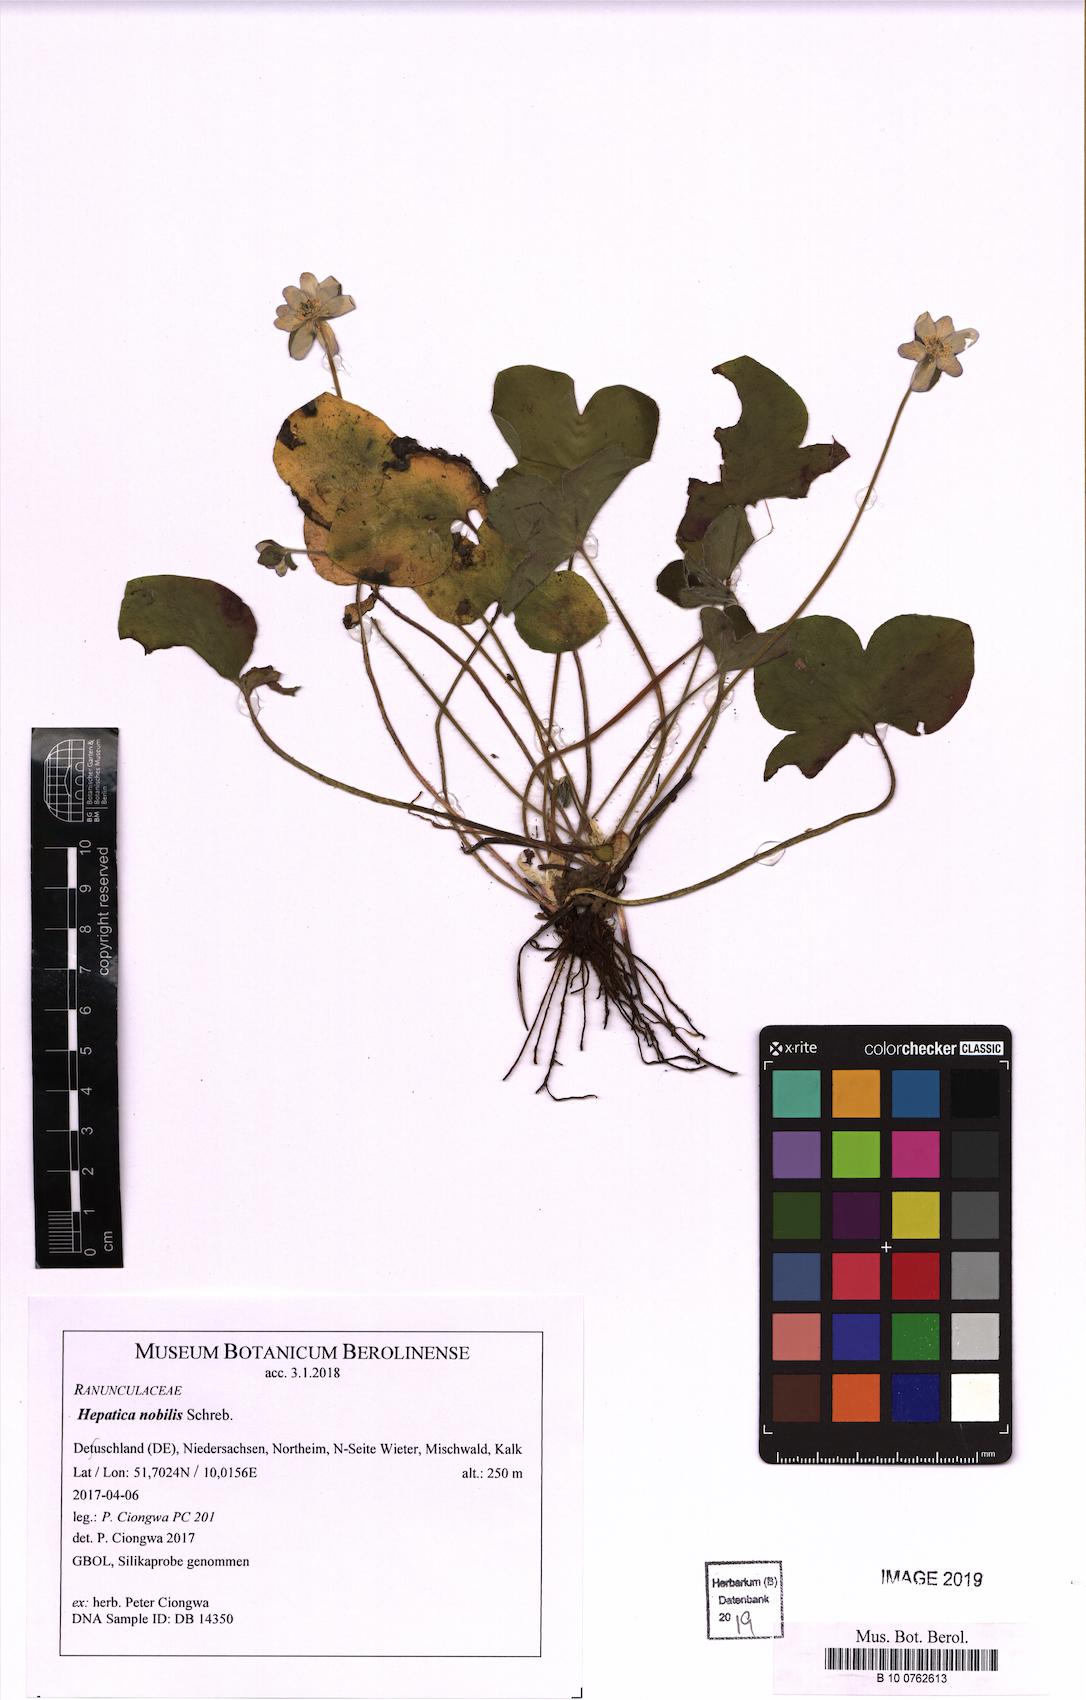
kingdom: Plantae
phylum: Tracheophyta
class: Magnoliopsida
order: Ranunculales
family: Ranunculaceae
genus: Hepatica
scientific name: Hepatica nobilis
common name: Liverleaf
